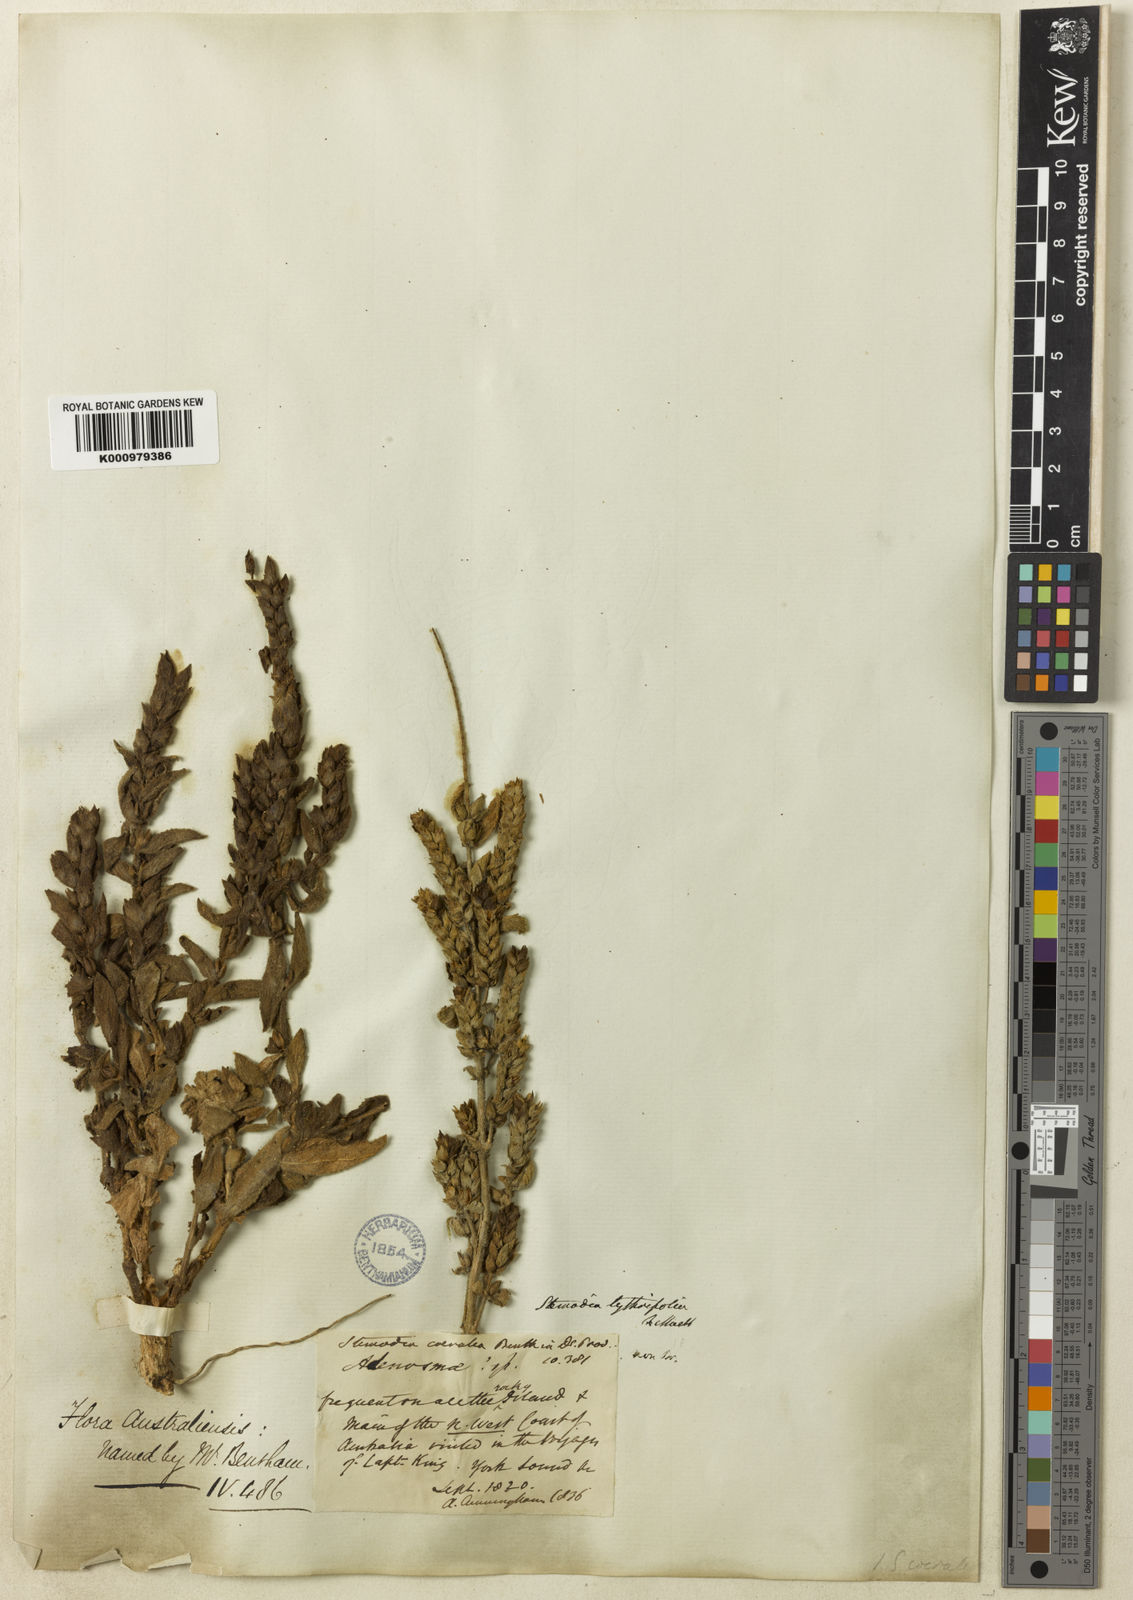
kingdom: Plantae
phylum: Tracheophyta
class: Magnoliopsida
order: Lamiales
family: Plantaginaceae
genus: Stemodia
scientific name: Stemodia lythrifolia
